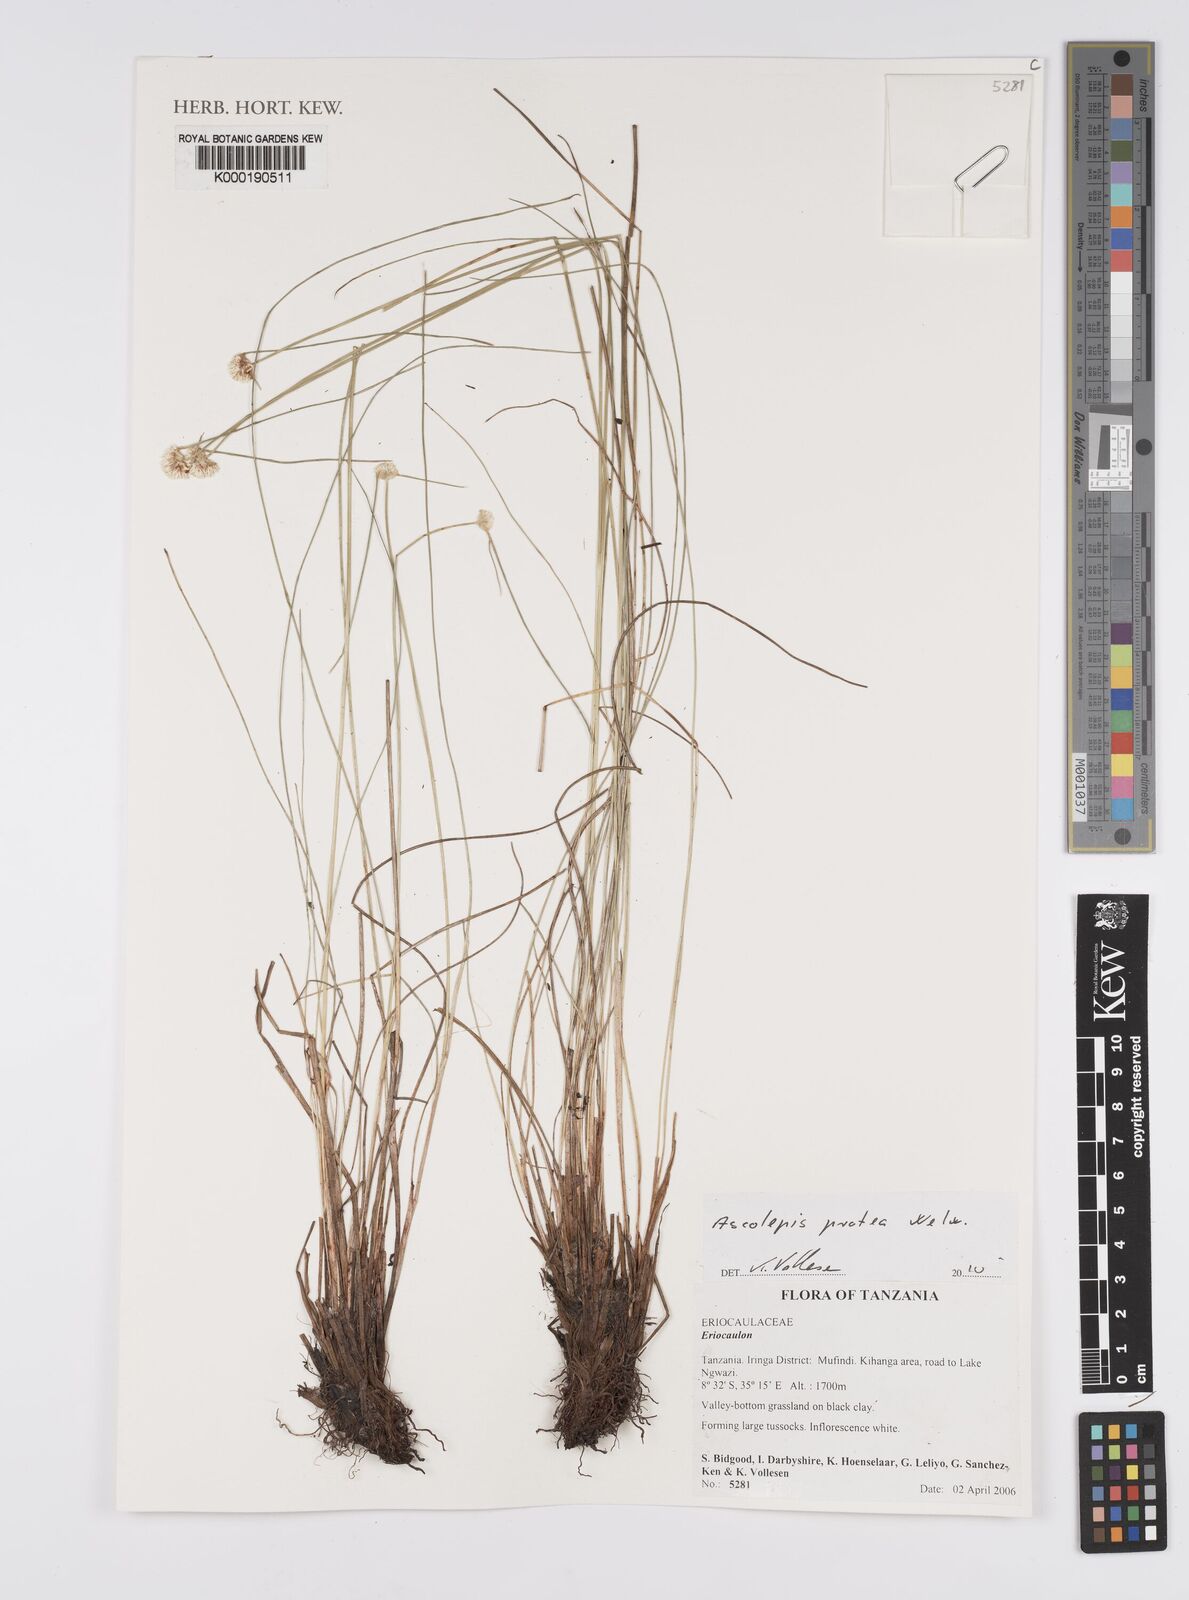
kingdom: Plantae
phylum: Tracheophyta
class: Liliopsida
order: Poales
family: Eriocaulaceae
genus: Eriocaulon
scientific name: Eriocaulon
